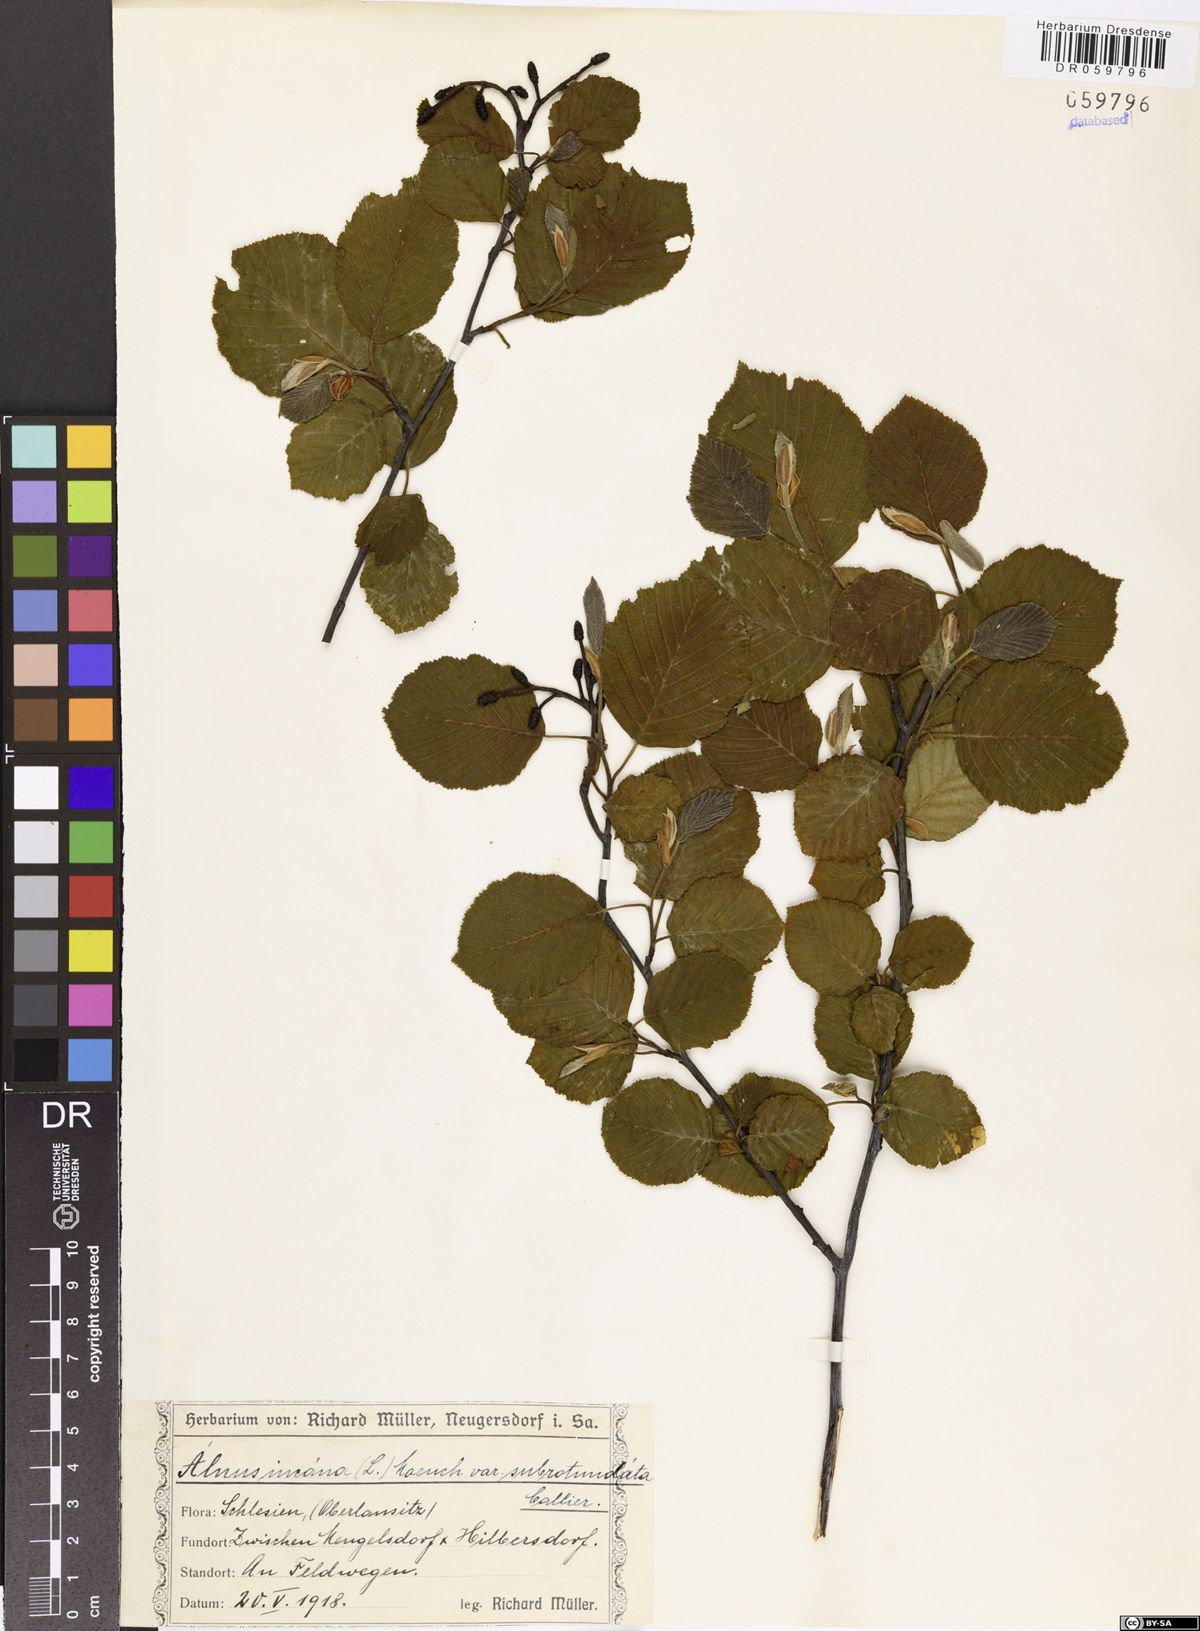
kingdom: Plantae
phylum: Tracheophyta
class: Magnoliopsida
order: Fagales
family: Betulaceae
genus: Alnus
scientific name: Alnus incana
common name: Grey alder
